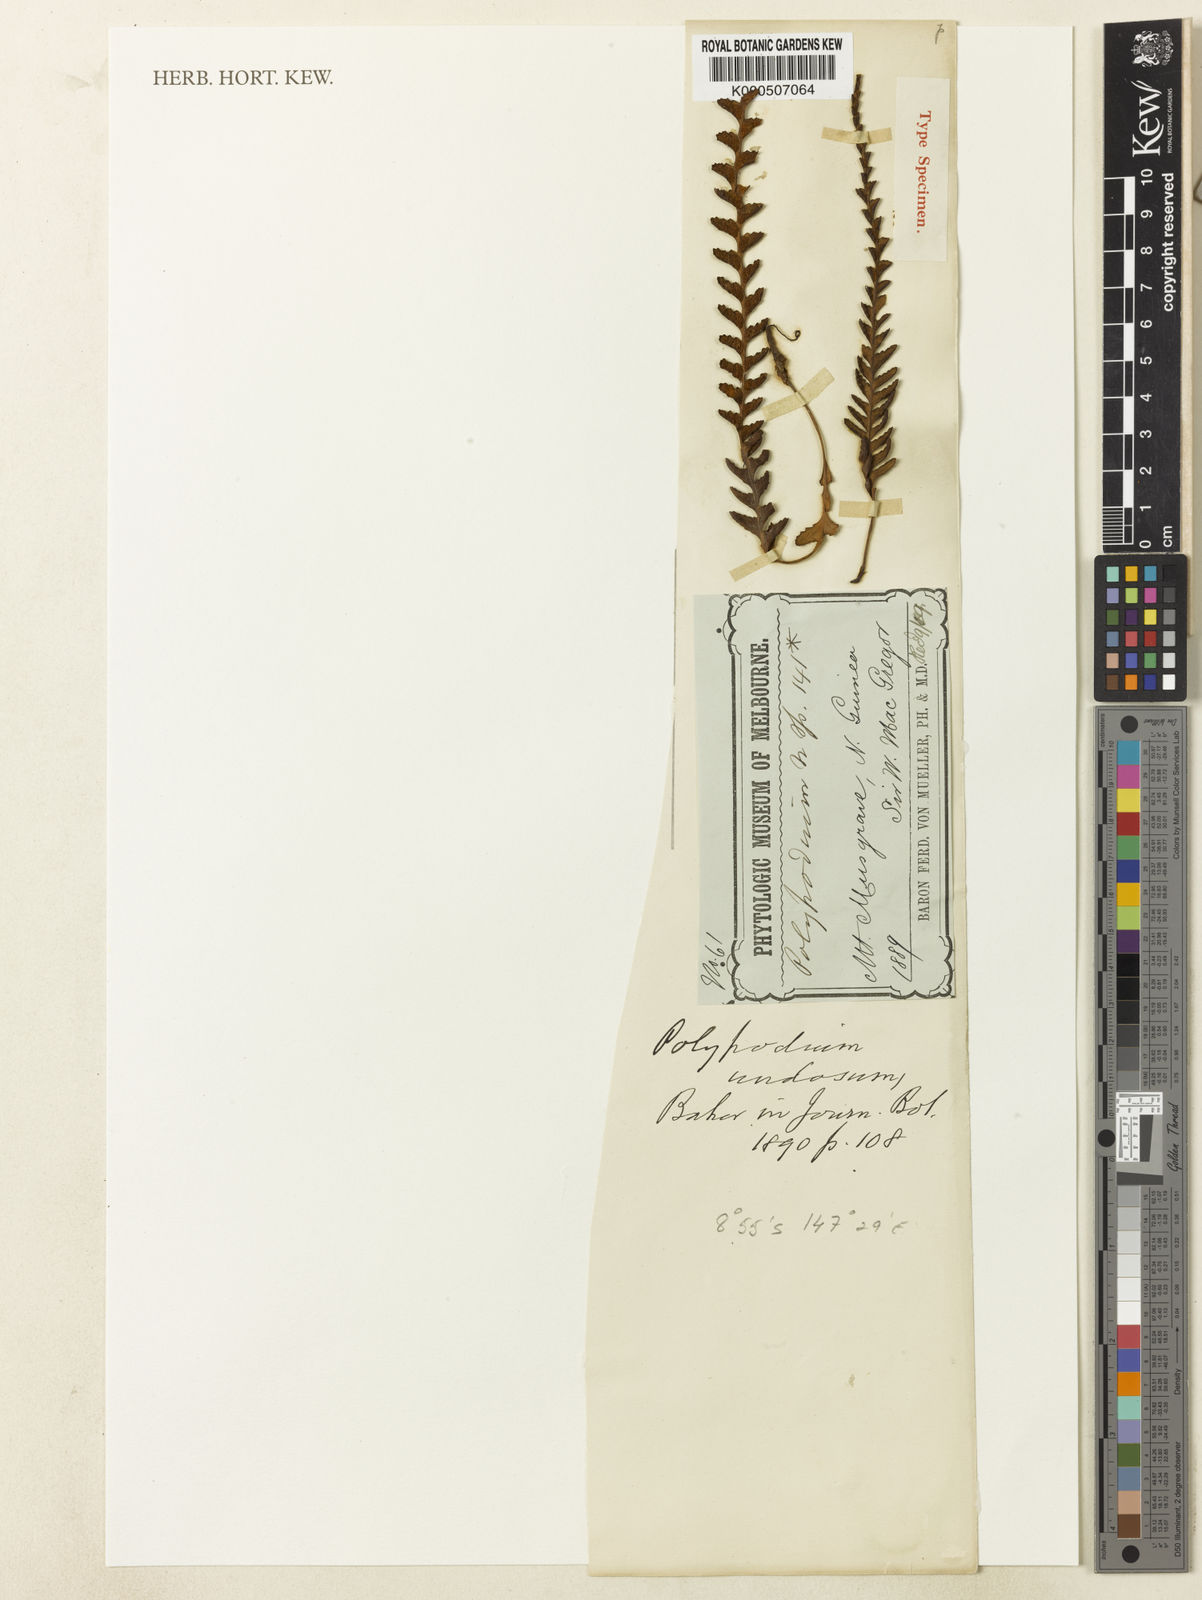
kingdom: Plantae
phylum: Tracheophyta
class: Polypodiopsida
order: Polypodiales
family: Polypodiaceae
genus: Ctenopterella
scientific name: Ctenopterella undosa
